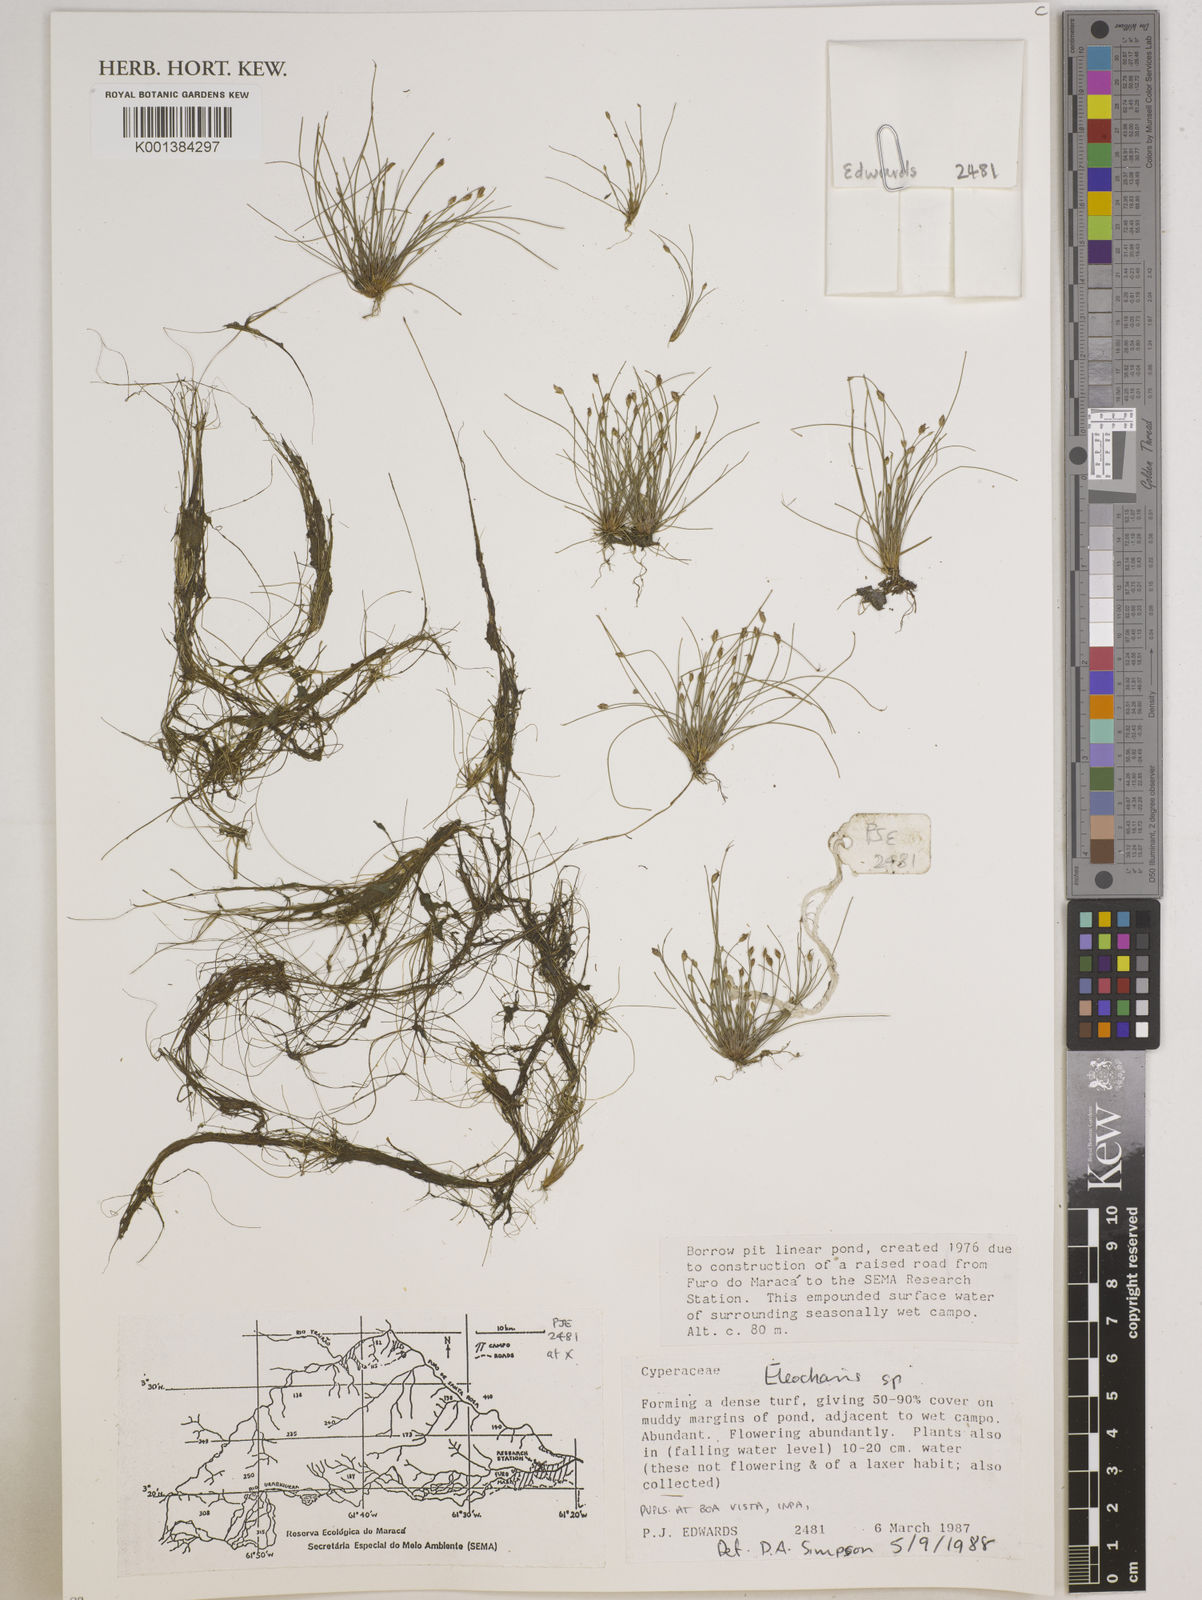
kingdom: Plantae
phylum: Tracheophyta
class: Liliopsida
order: Poales
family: Cyperaceae
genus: Eleocharis
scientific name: Eleocharis
